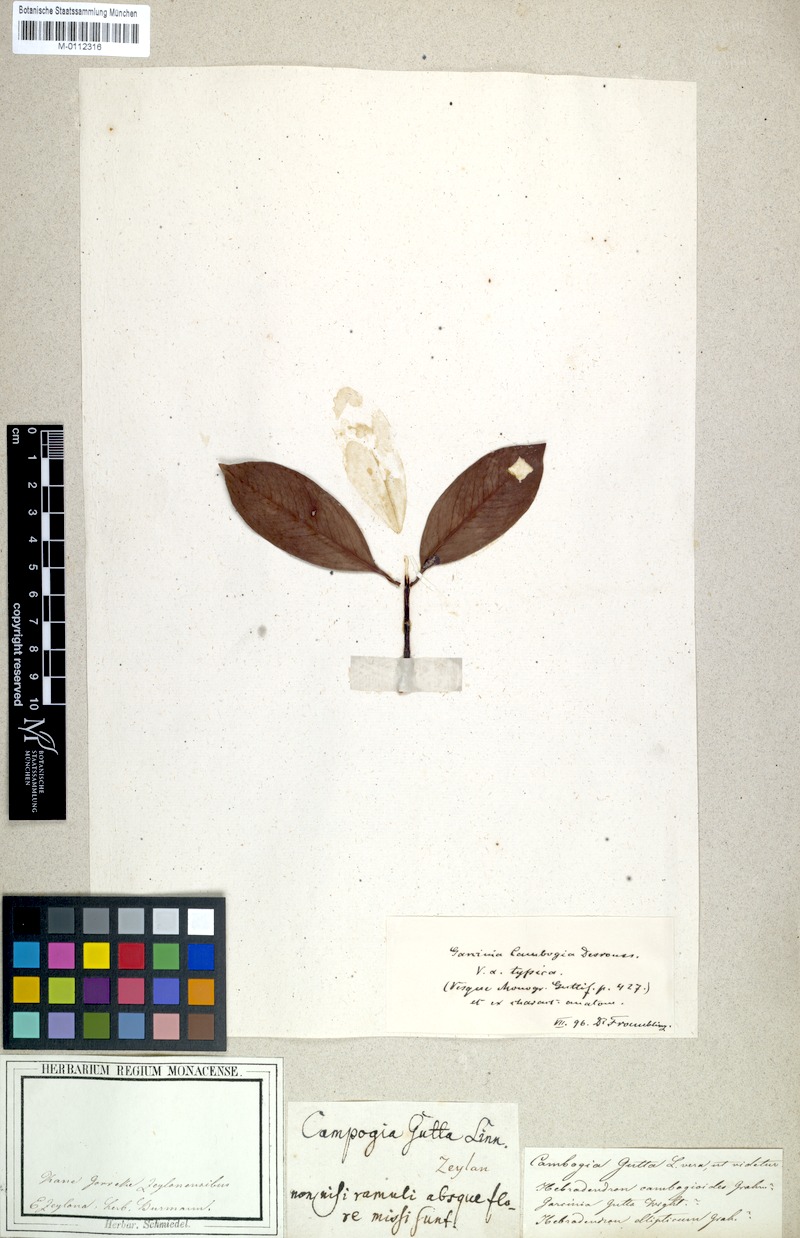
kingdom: Plantae
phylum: Tracheophyta
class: Magnoliopsida
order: Malpighiales
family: Clusiaceae
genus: Garcinia
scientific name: Garcinia gummi-gutta
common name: Malabar tamarind
